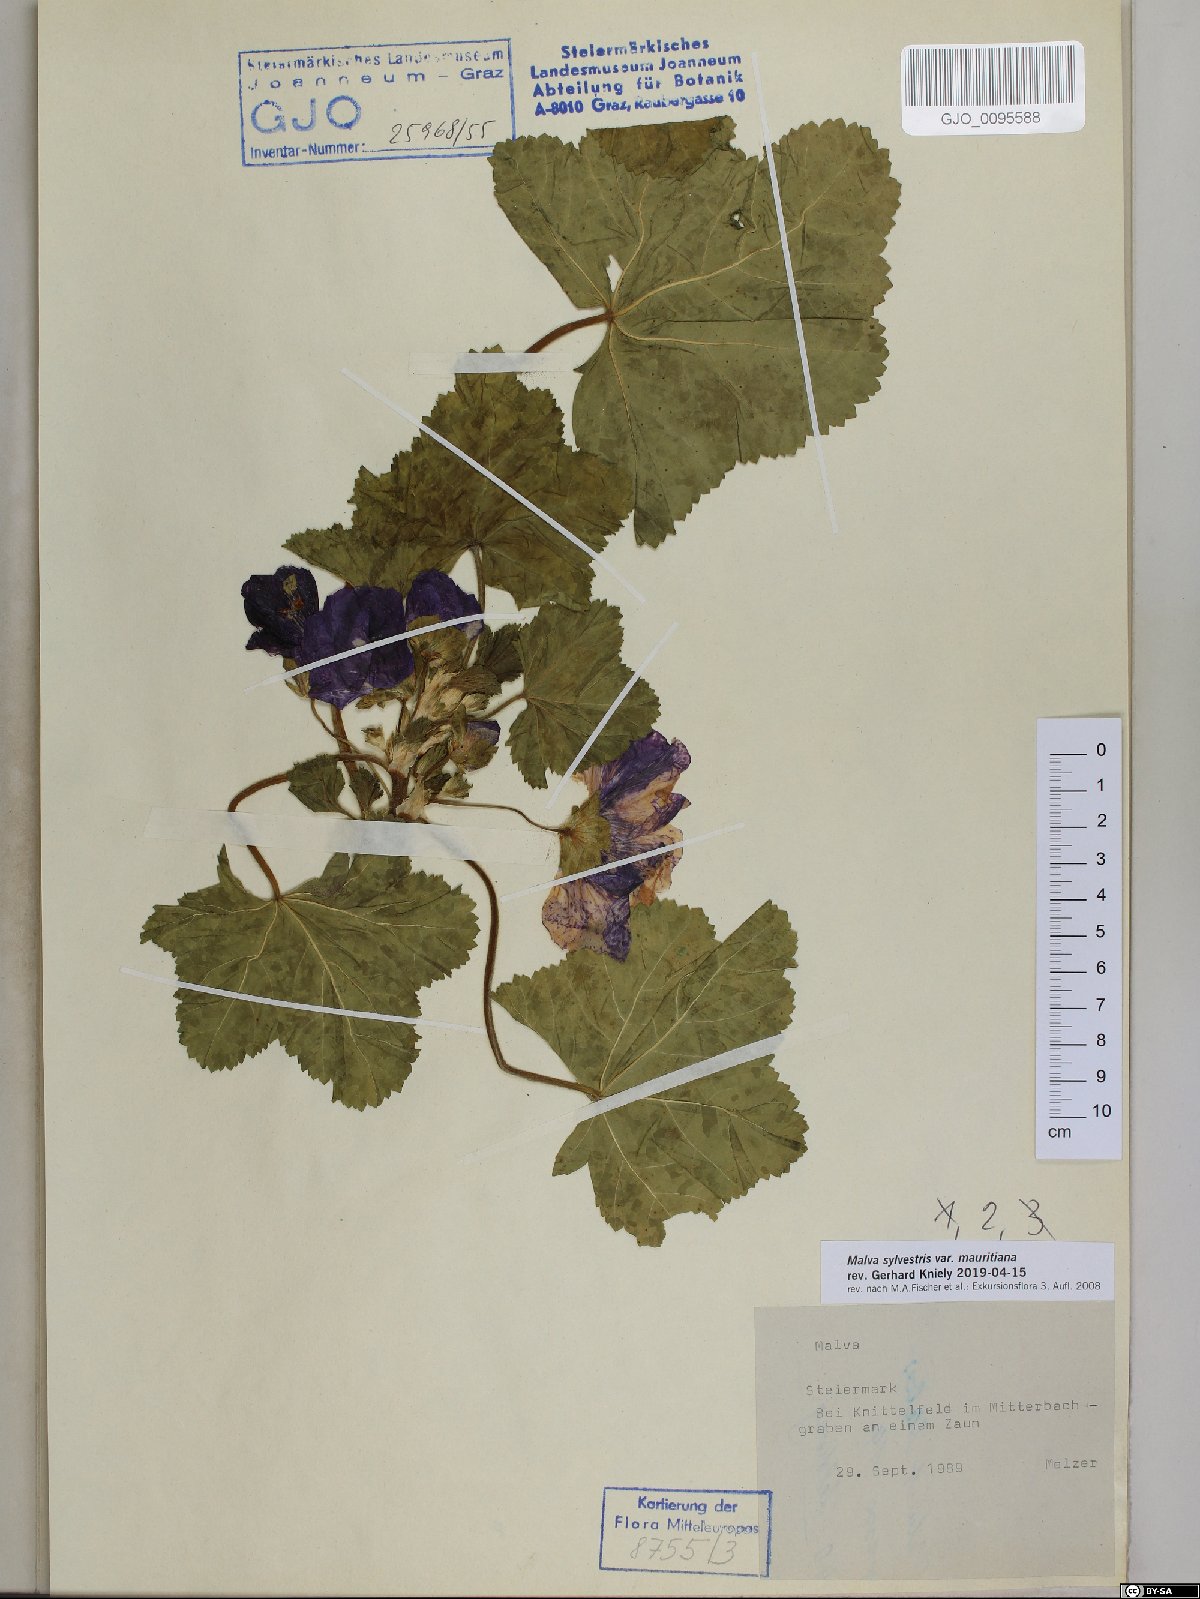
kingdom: Plantae
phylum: Tracheophyta
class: Magnoliopsida
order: Malvales
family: Malvaceae
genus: Malva
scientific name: Malva sylvestris
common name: Common mallow
